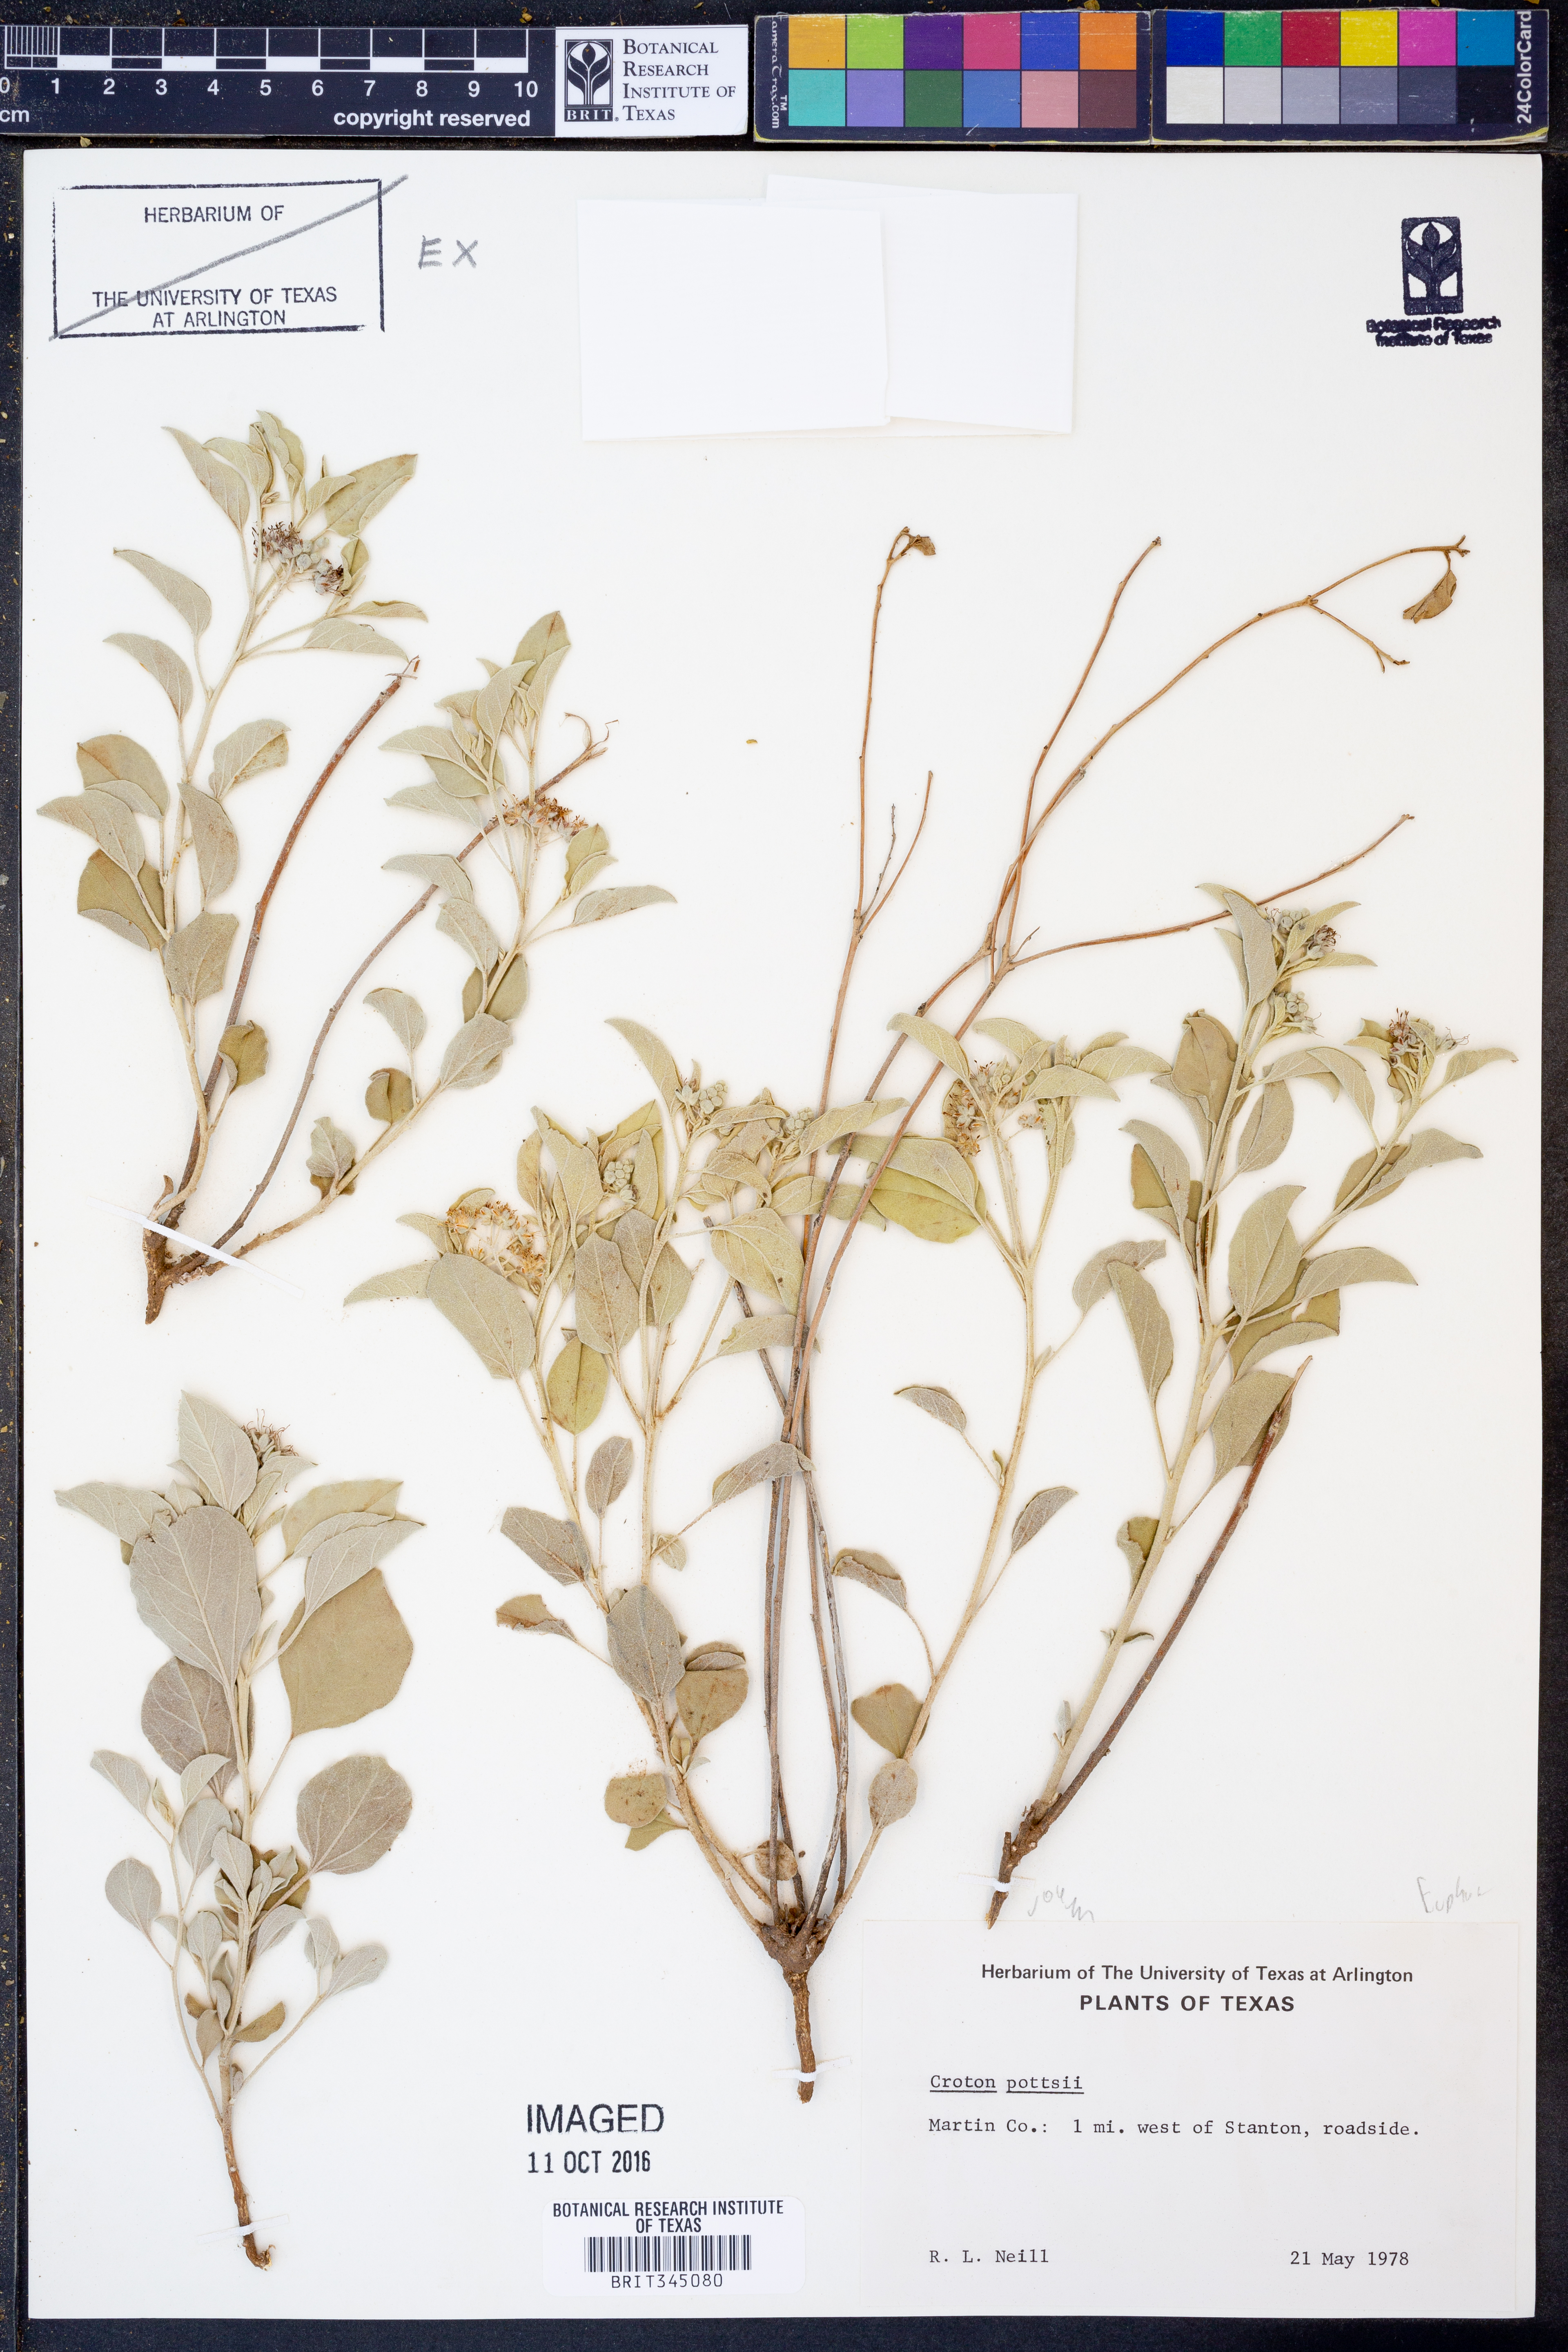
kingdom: Plantae
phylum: Tracheophyta
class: Magnoliopsida
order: Malpighiales
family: Euphorbiaceae
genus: Croton
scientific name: Croton pottsii
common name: Leatherweed
